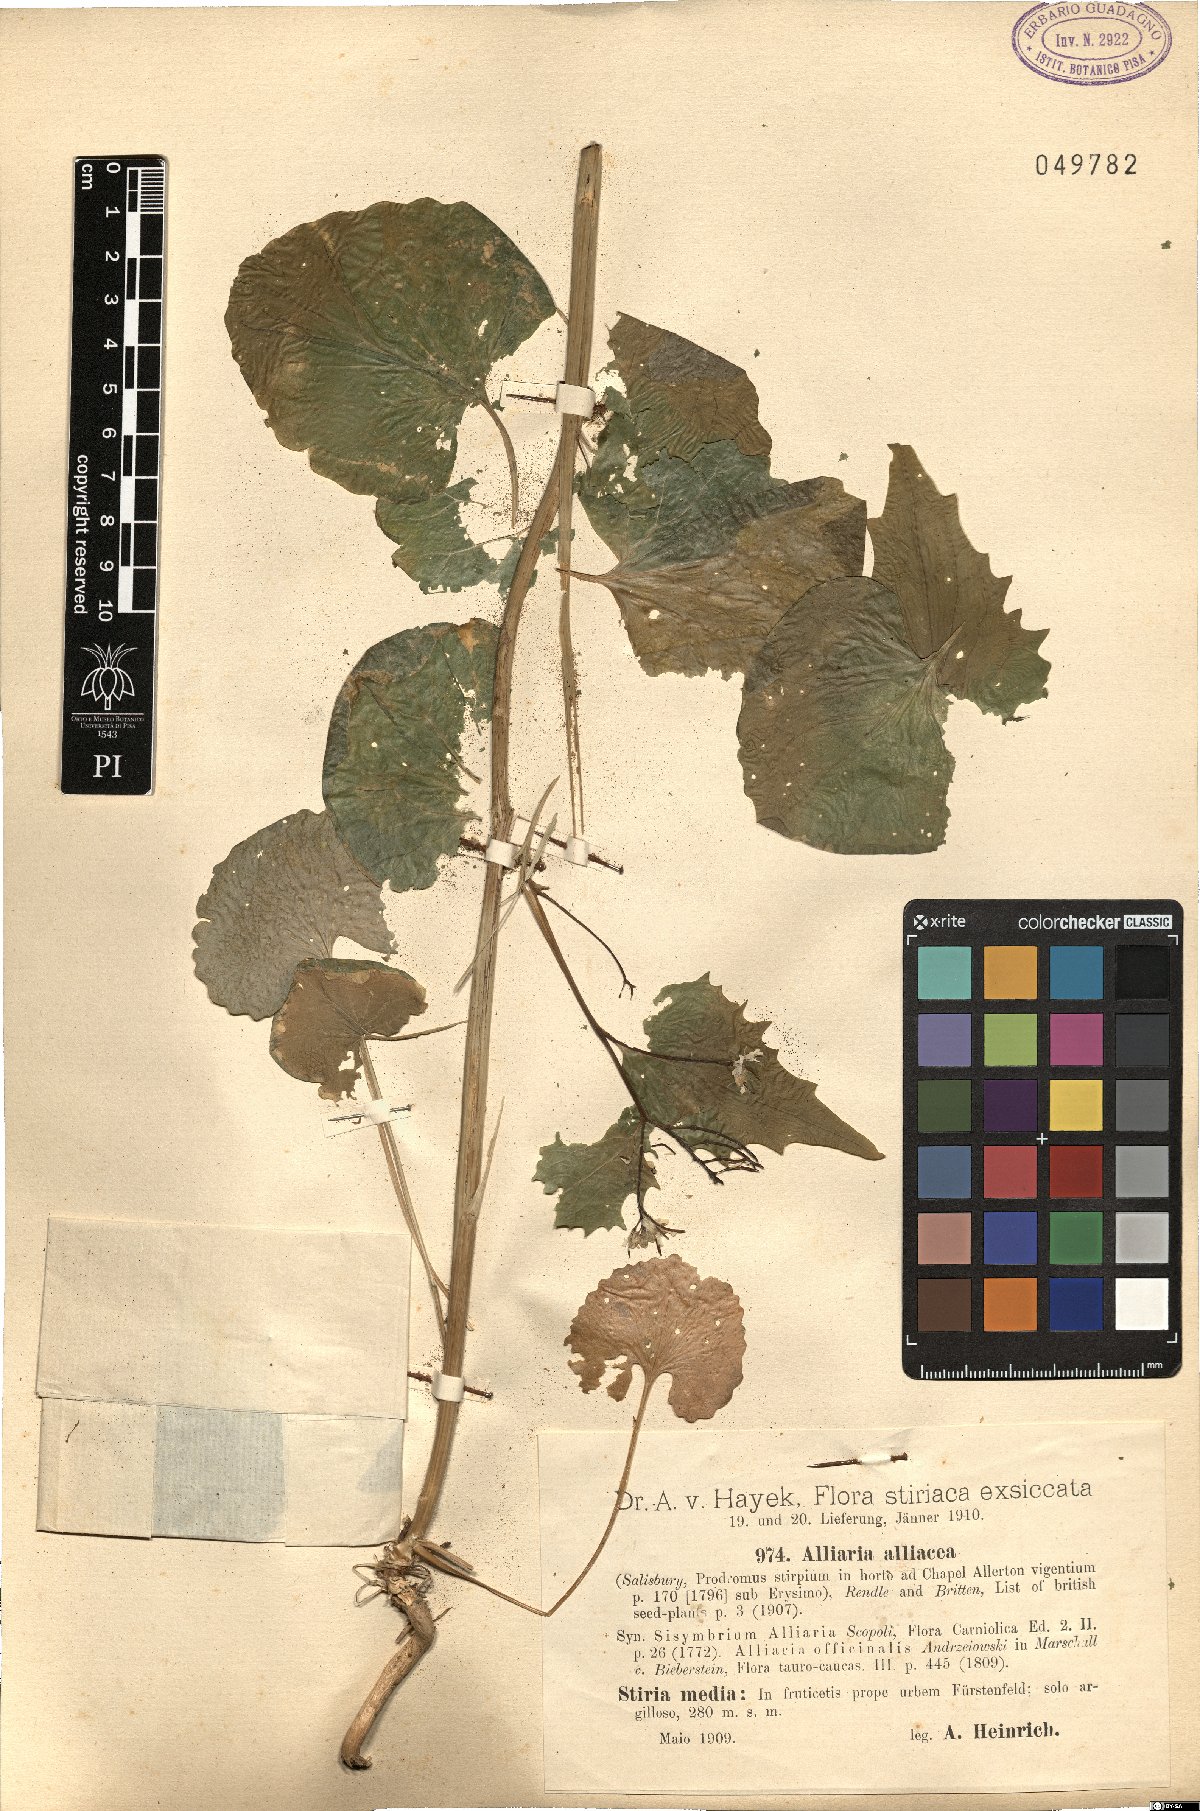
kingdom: Plantae
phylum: Tracheophyta
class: Magnoliopsida
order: Brassicales
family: Brassicaceae
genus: Alliaria
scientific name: Alliaria petiolata
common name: Garlic mustard
